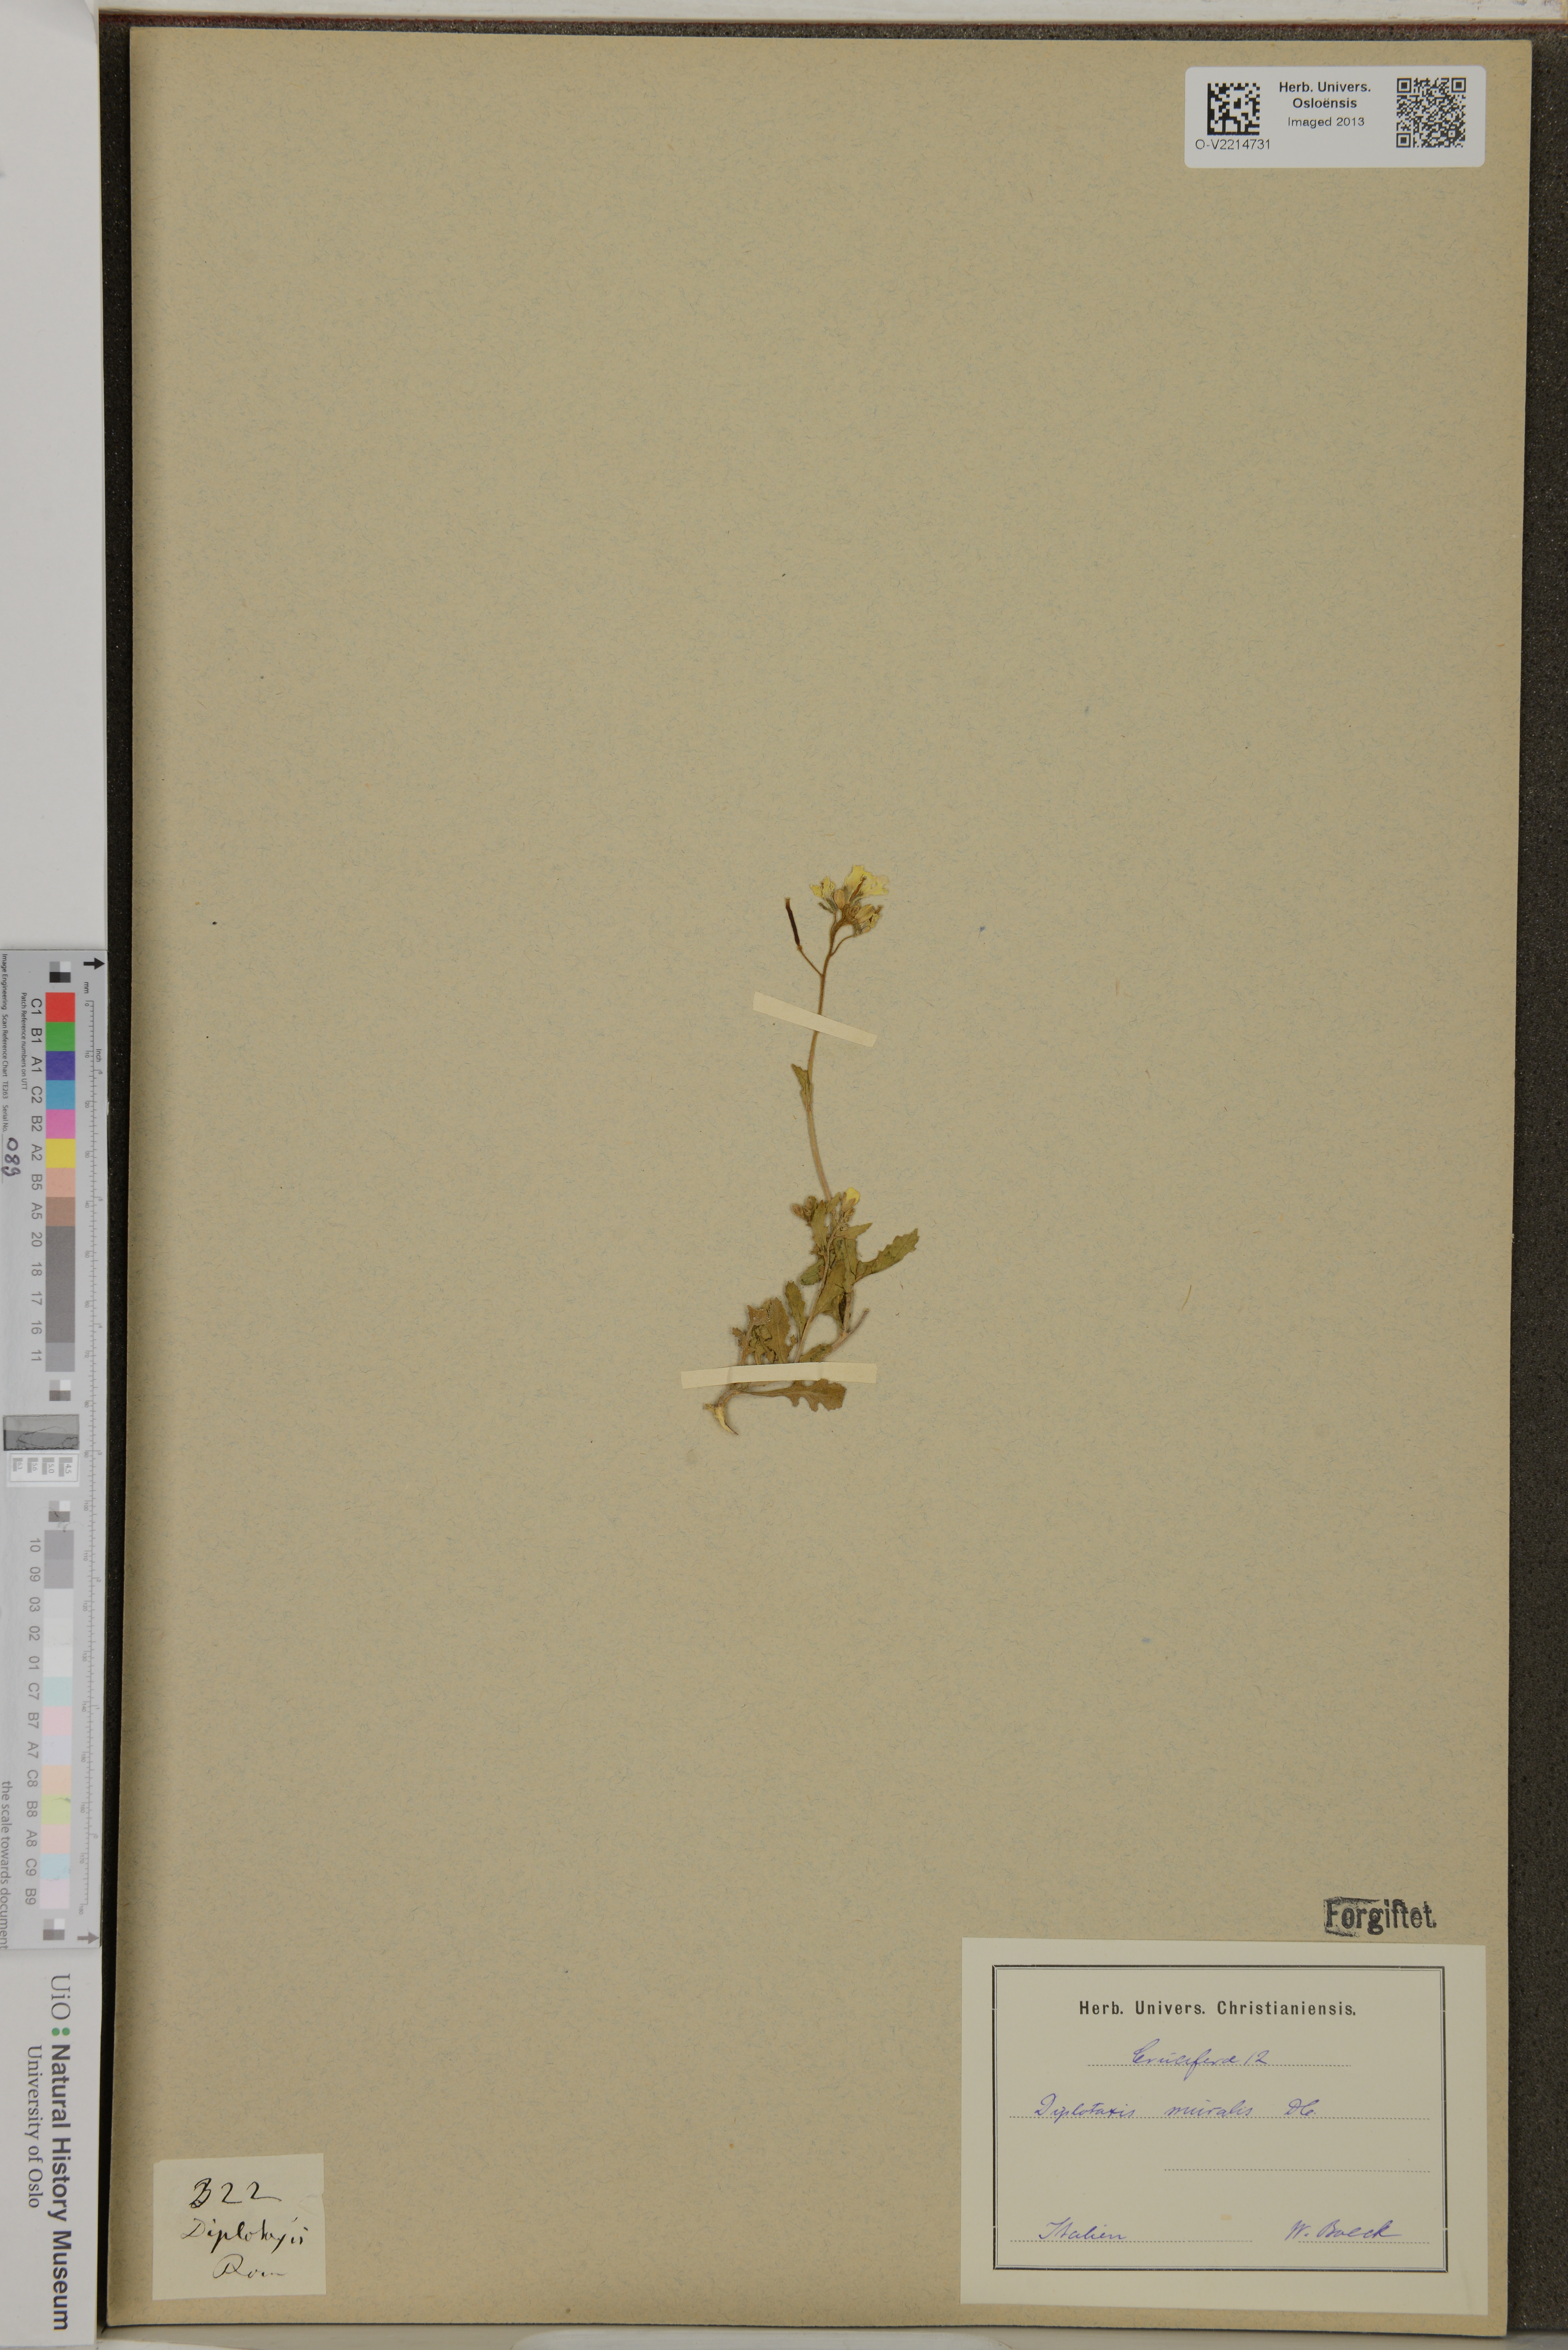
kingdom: Plantae
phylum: Tracheophyta
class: Magnoliopsida
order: Brassicales
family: Brassicaceae
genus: Diplotaxis
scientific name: Diplotaxis muralis
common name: Annual wall-rocket
